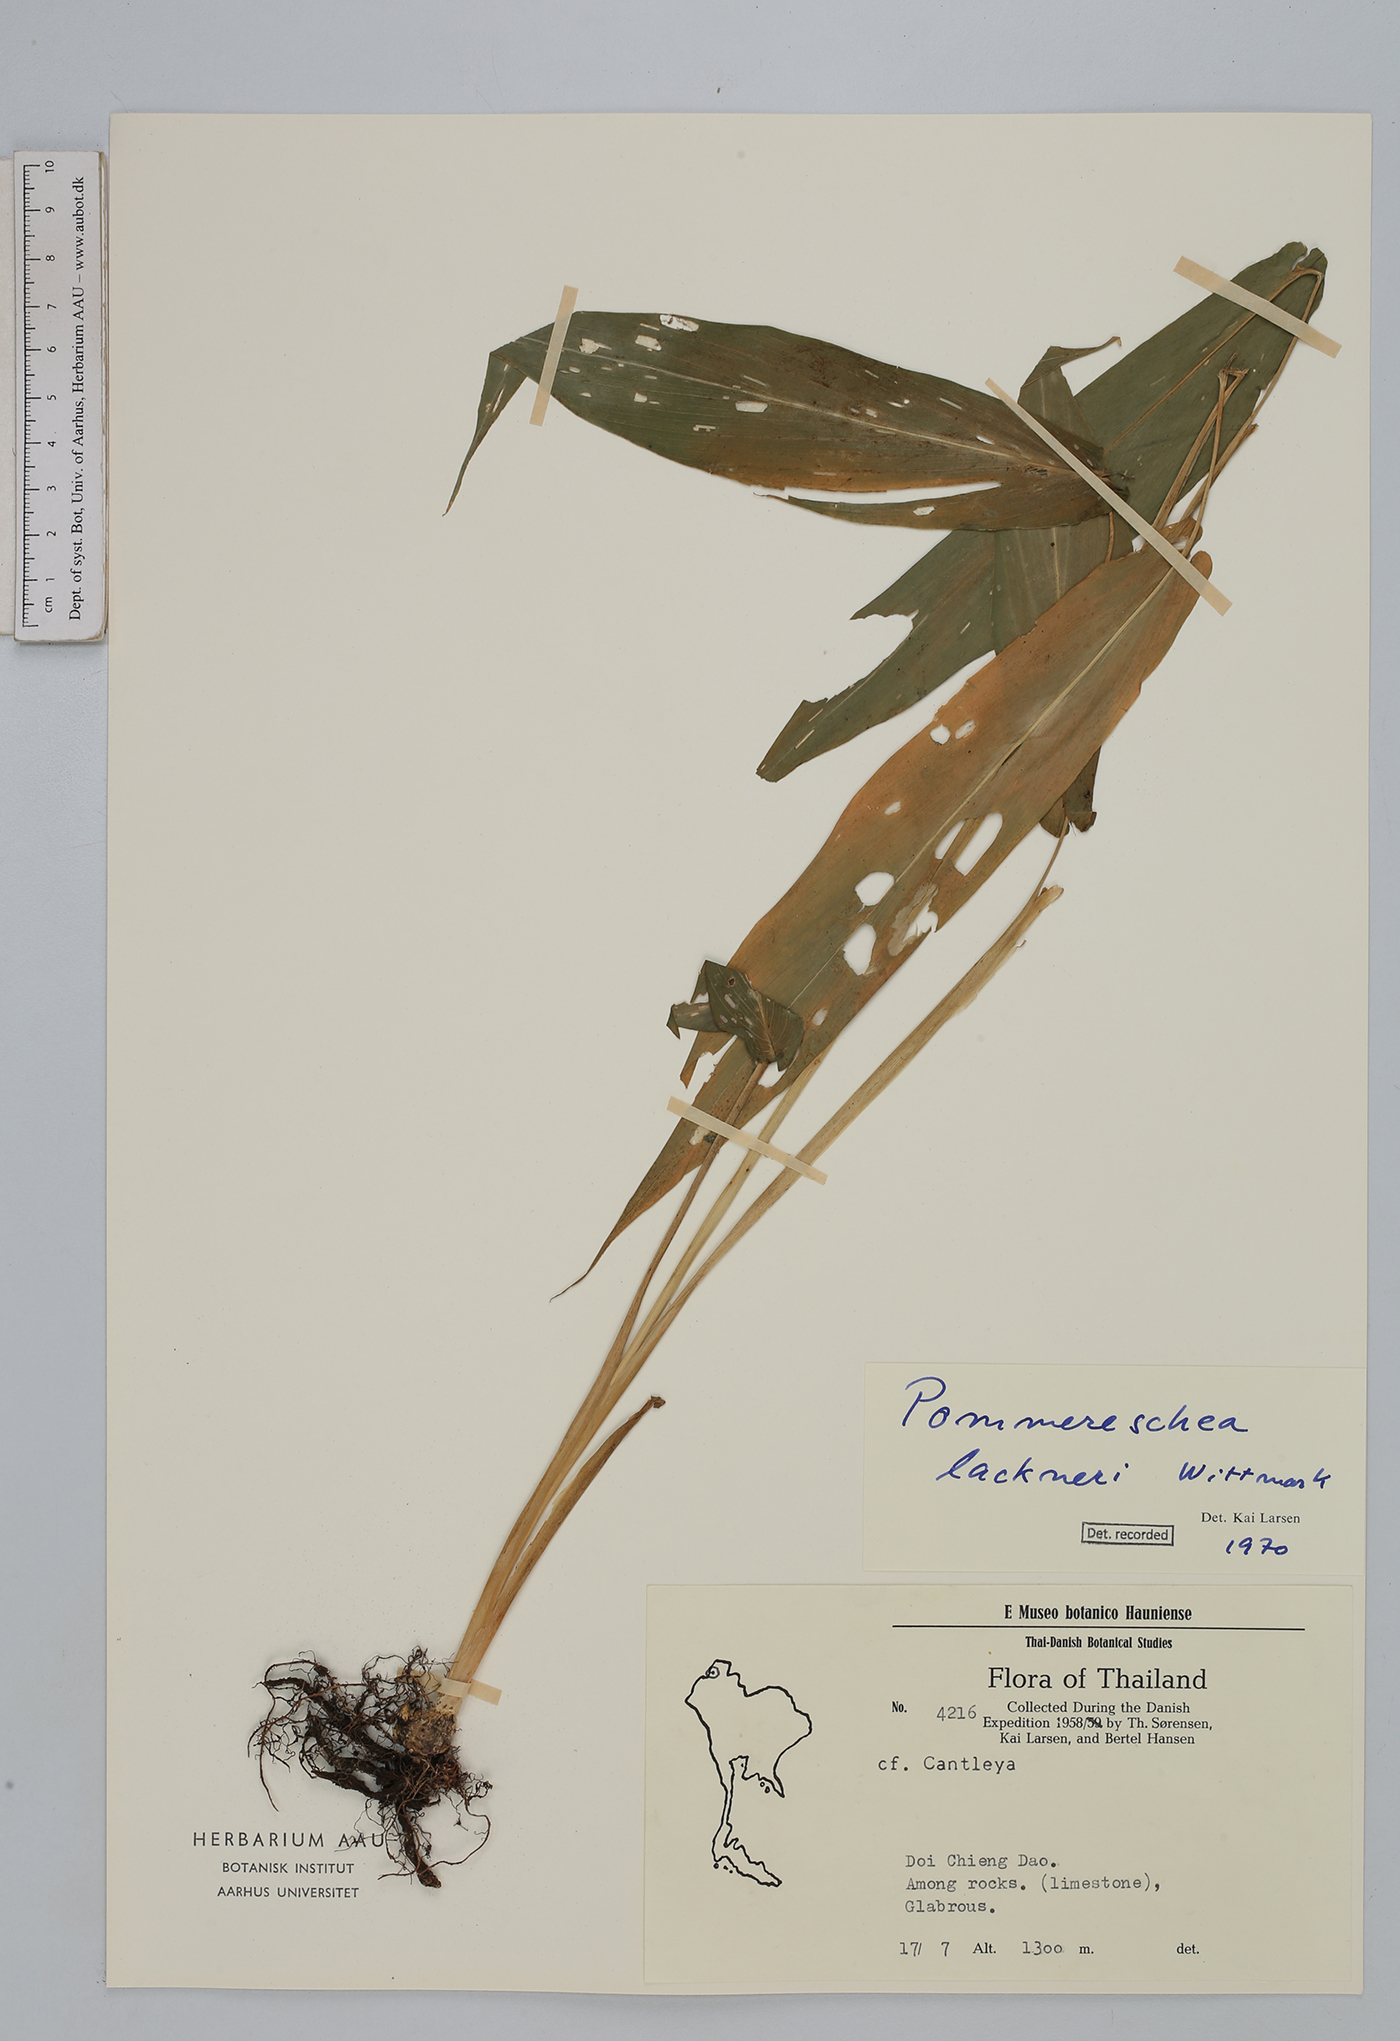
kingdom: Plantae
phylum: Tracheophyta
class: Liliopsida
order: Zingiberales
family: Zingiberaceae
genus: Pommereschea
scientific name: Pommereschea lackneri
